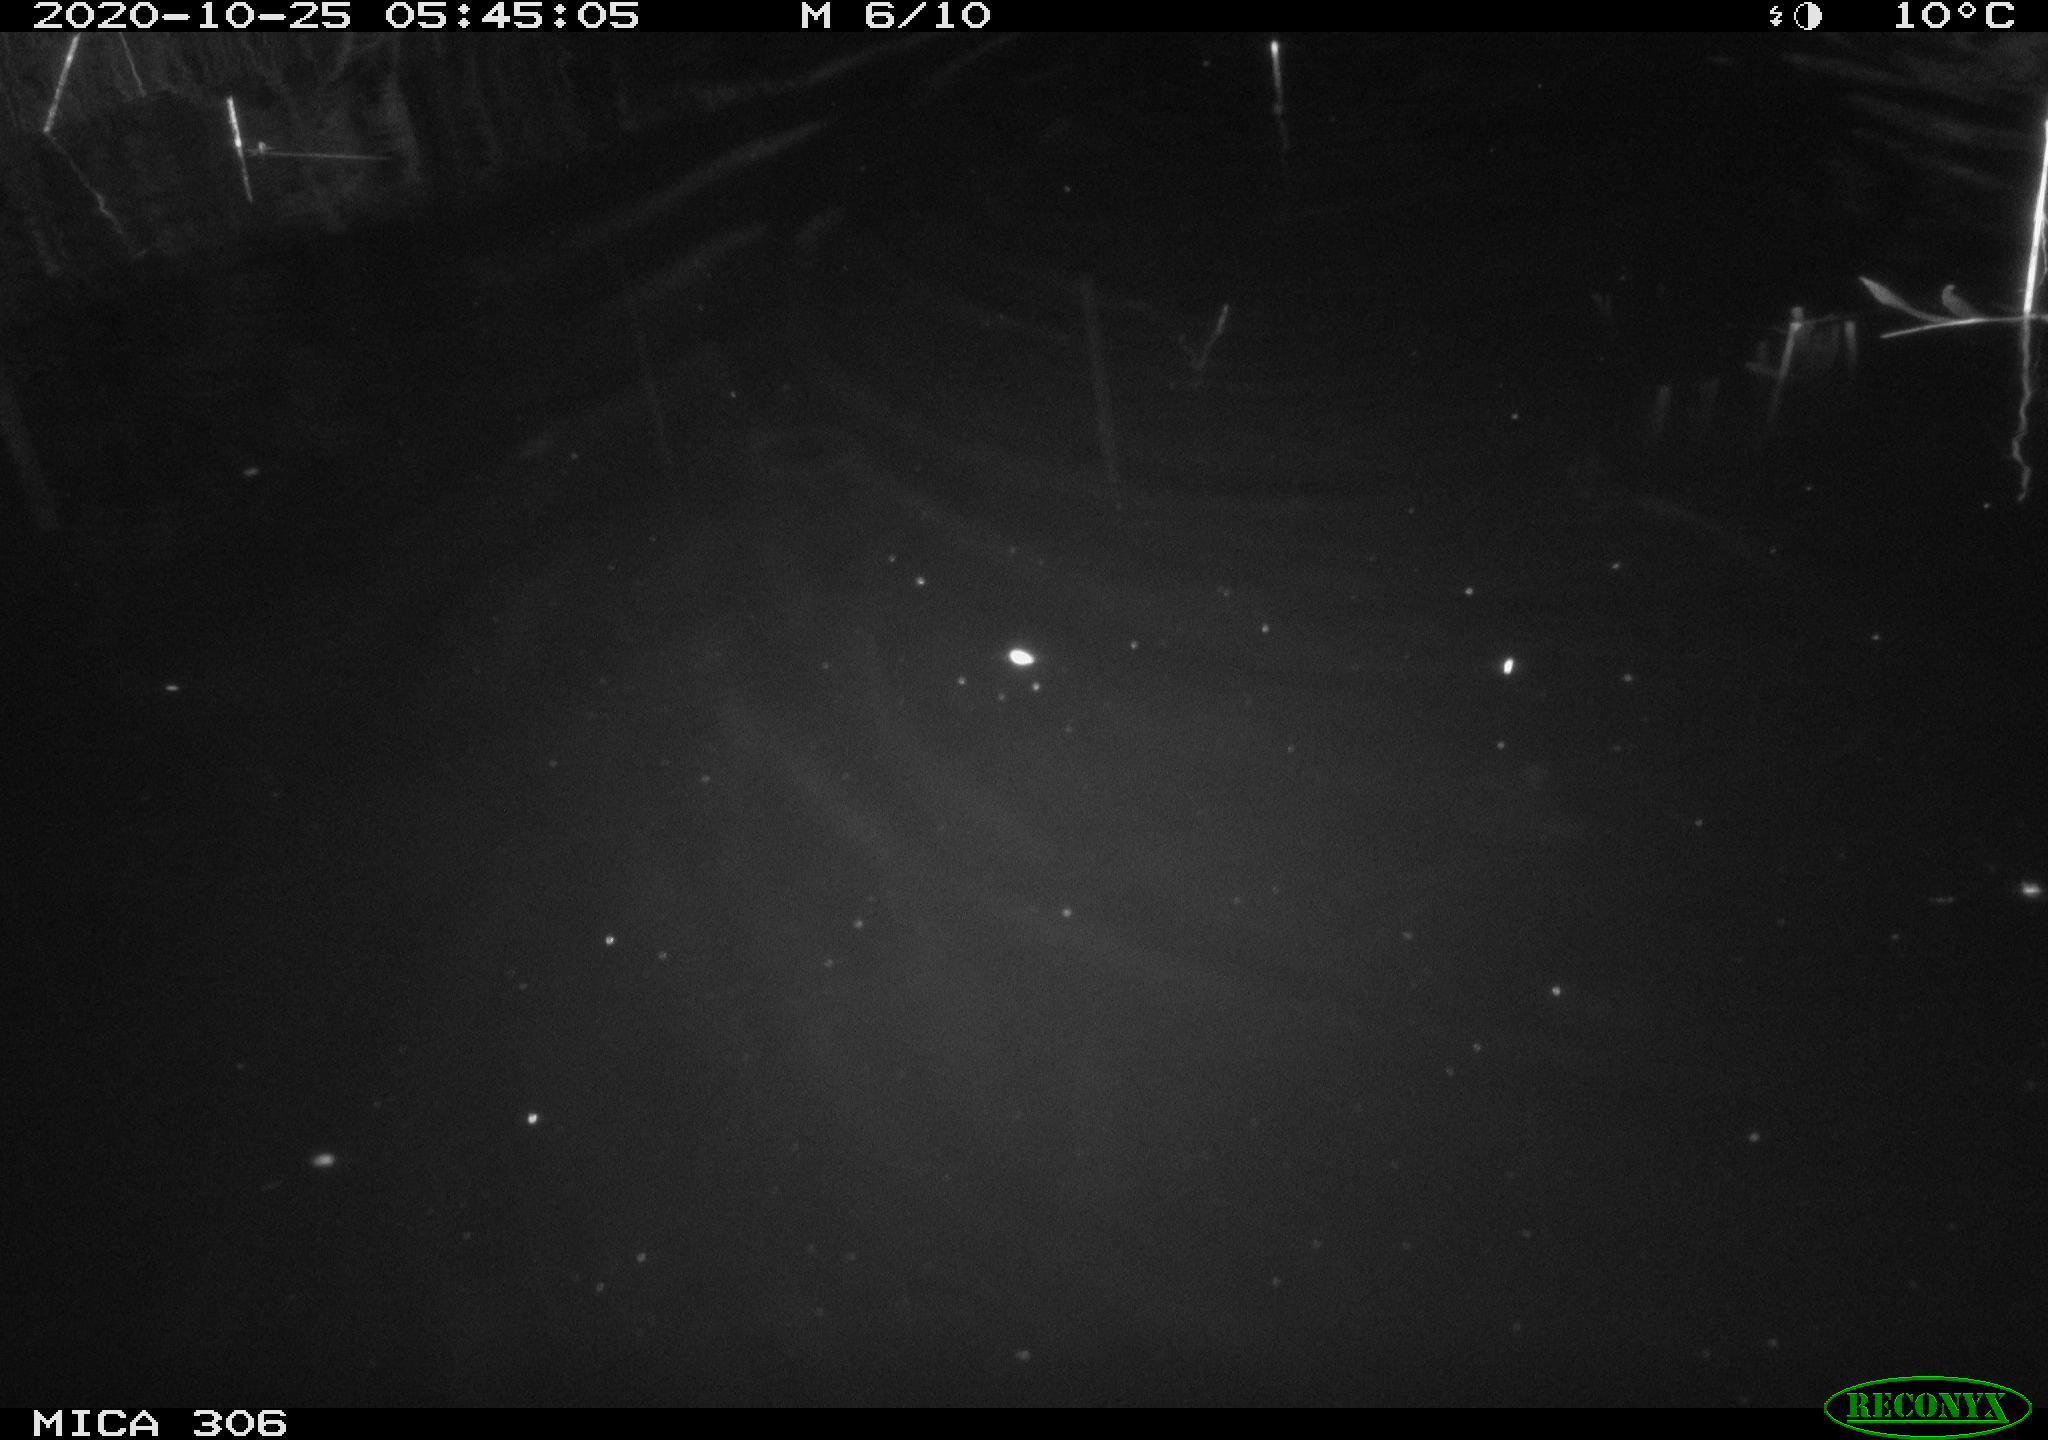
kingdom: Animalia
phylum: Chordata
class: Mammalia
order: Rodentia
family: Cricetidae
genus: Ondatra
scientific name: Ondatra zibethicus
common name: Muskrat
